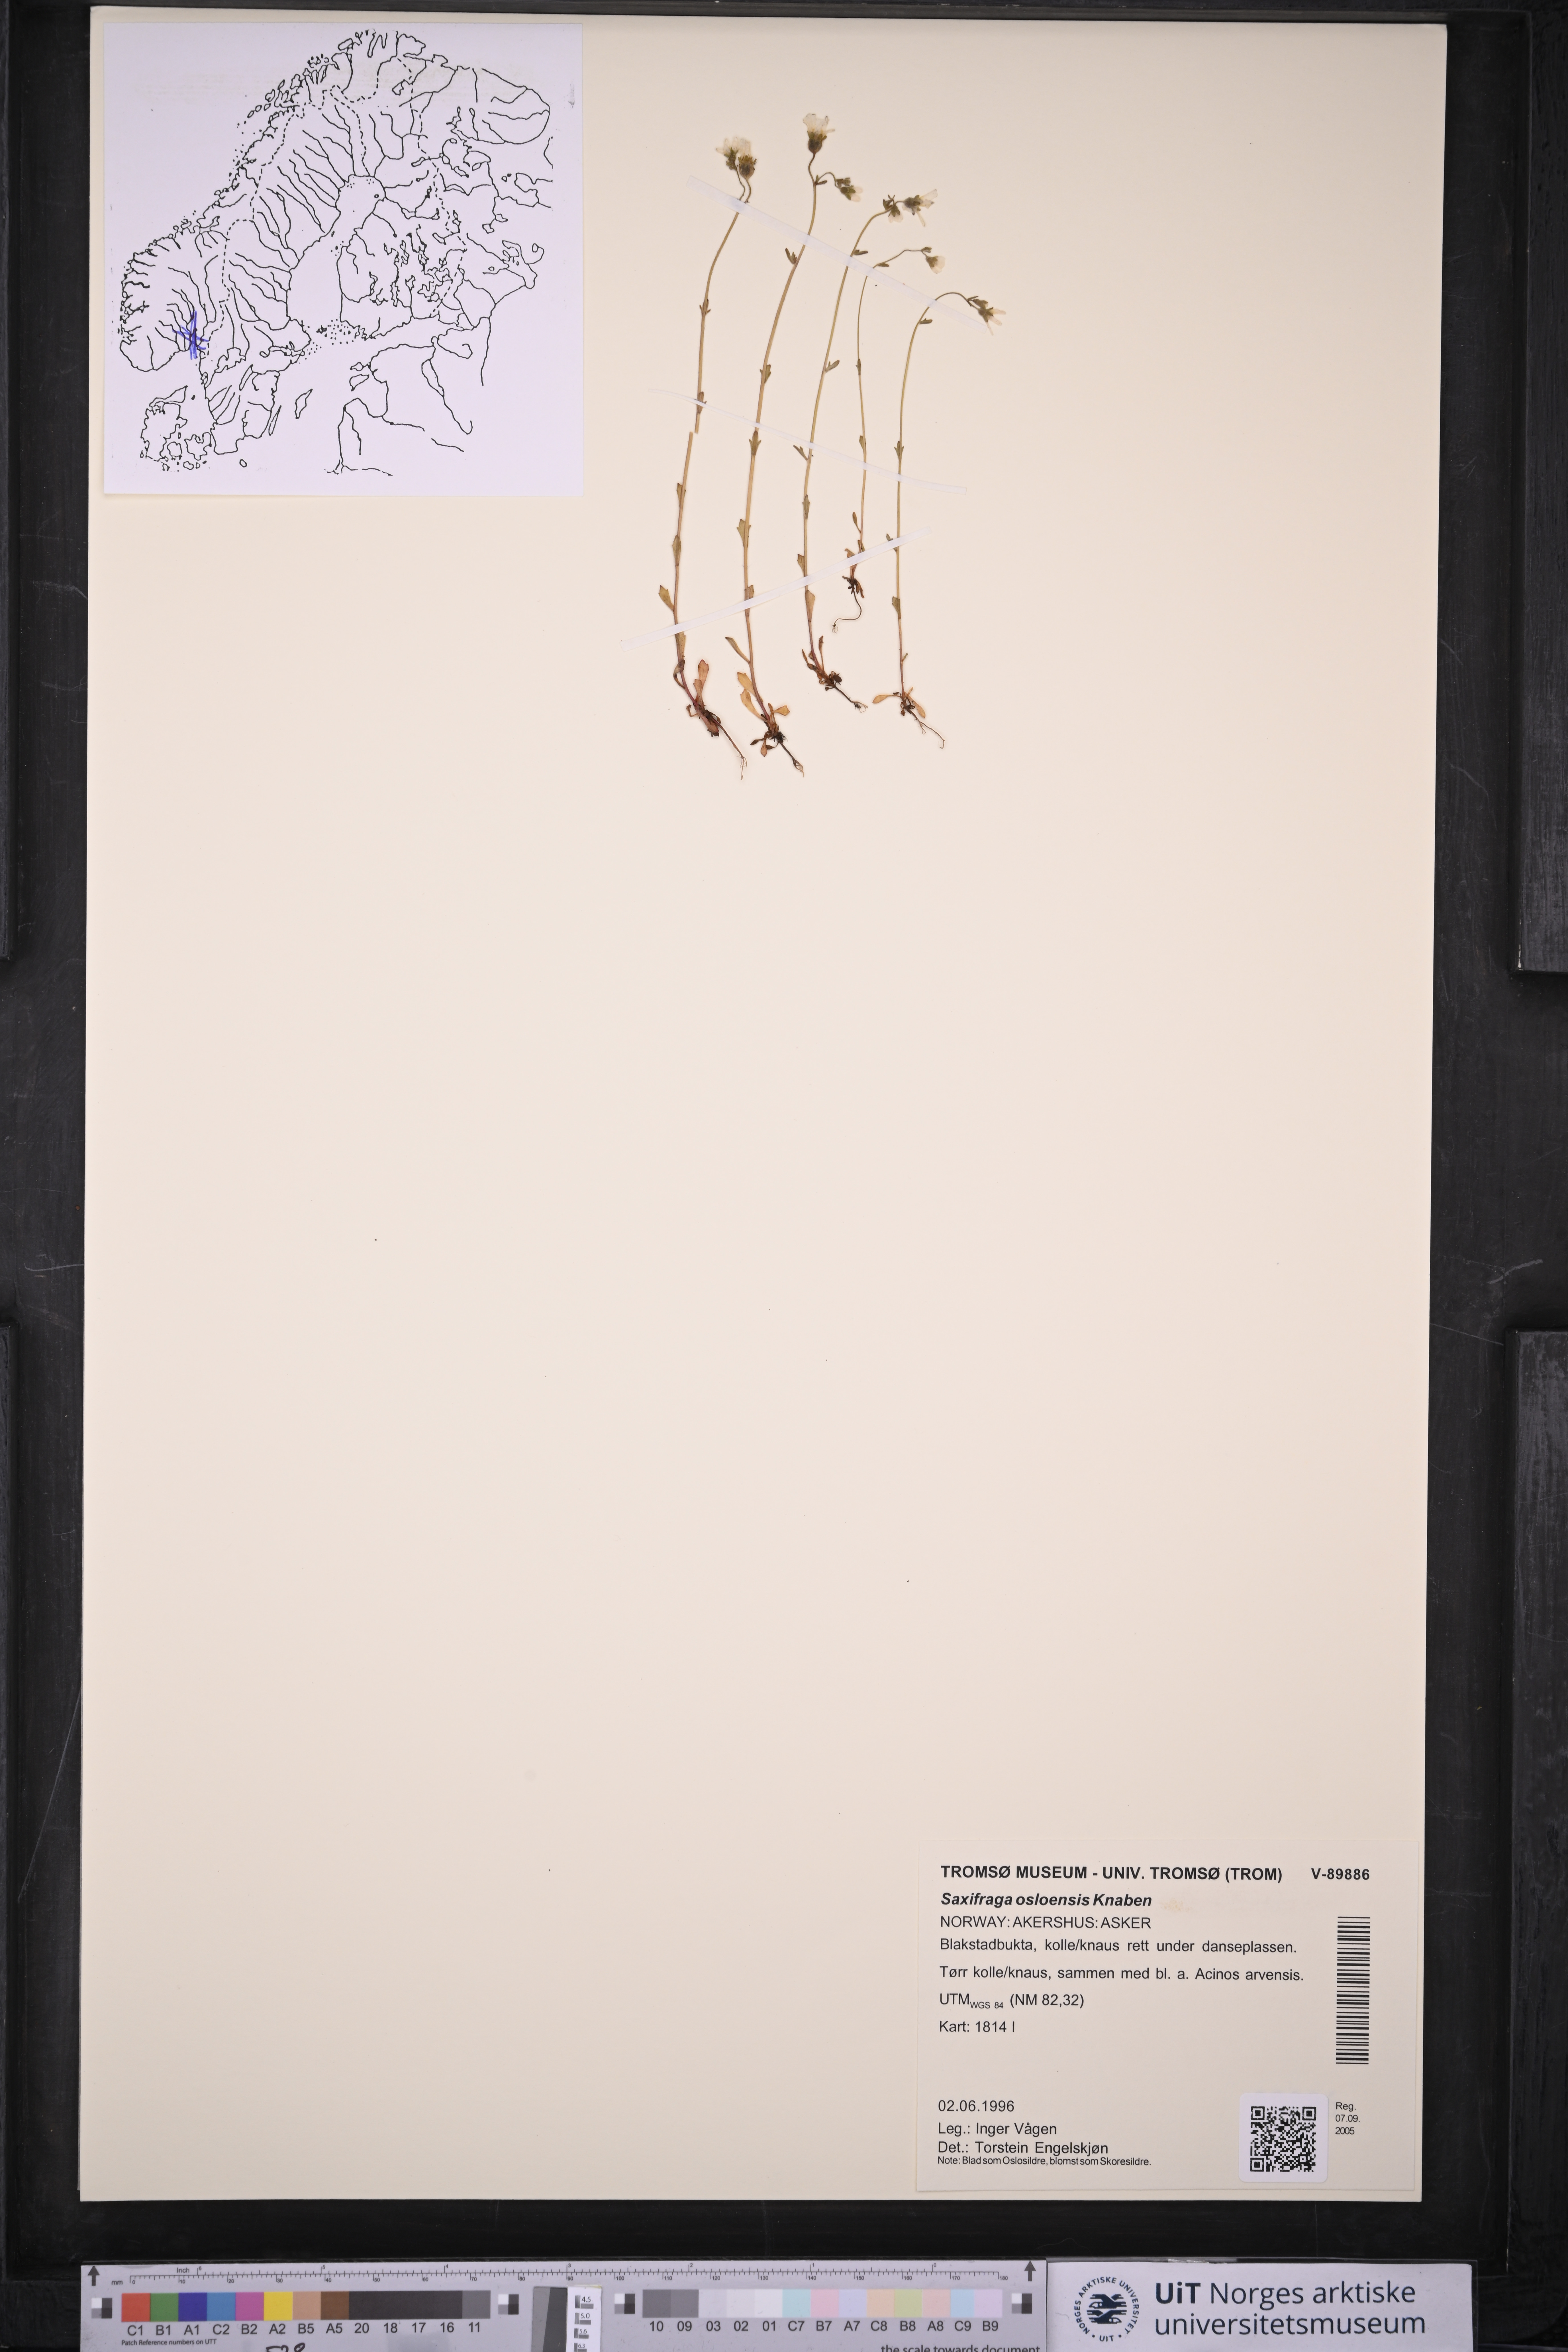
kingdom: Plantae
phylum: Tracheophyta
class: Magnoliopsida
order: Saxifragales
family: Saxifragaceae
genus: Saxifraga
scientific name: Saxifraga osloensis
